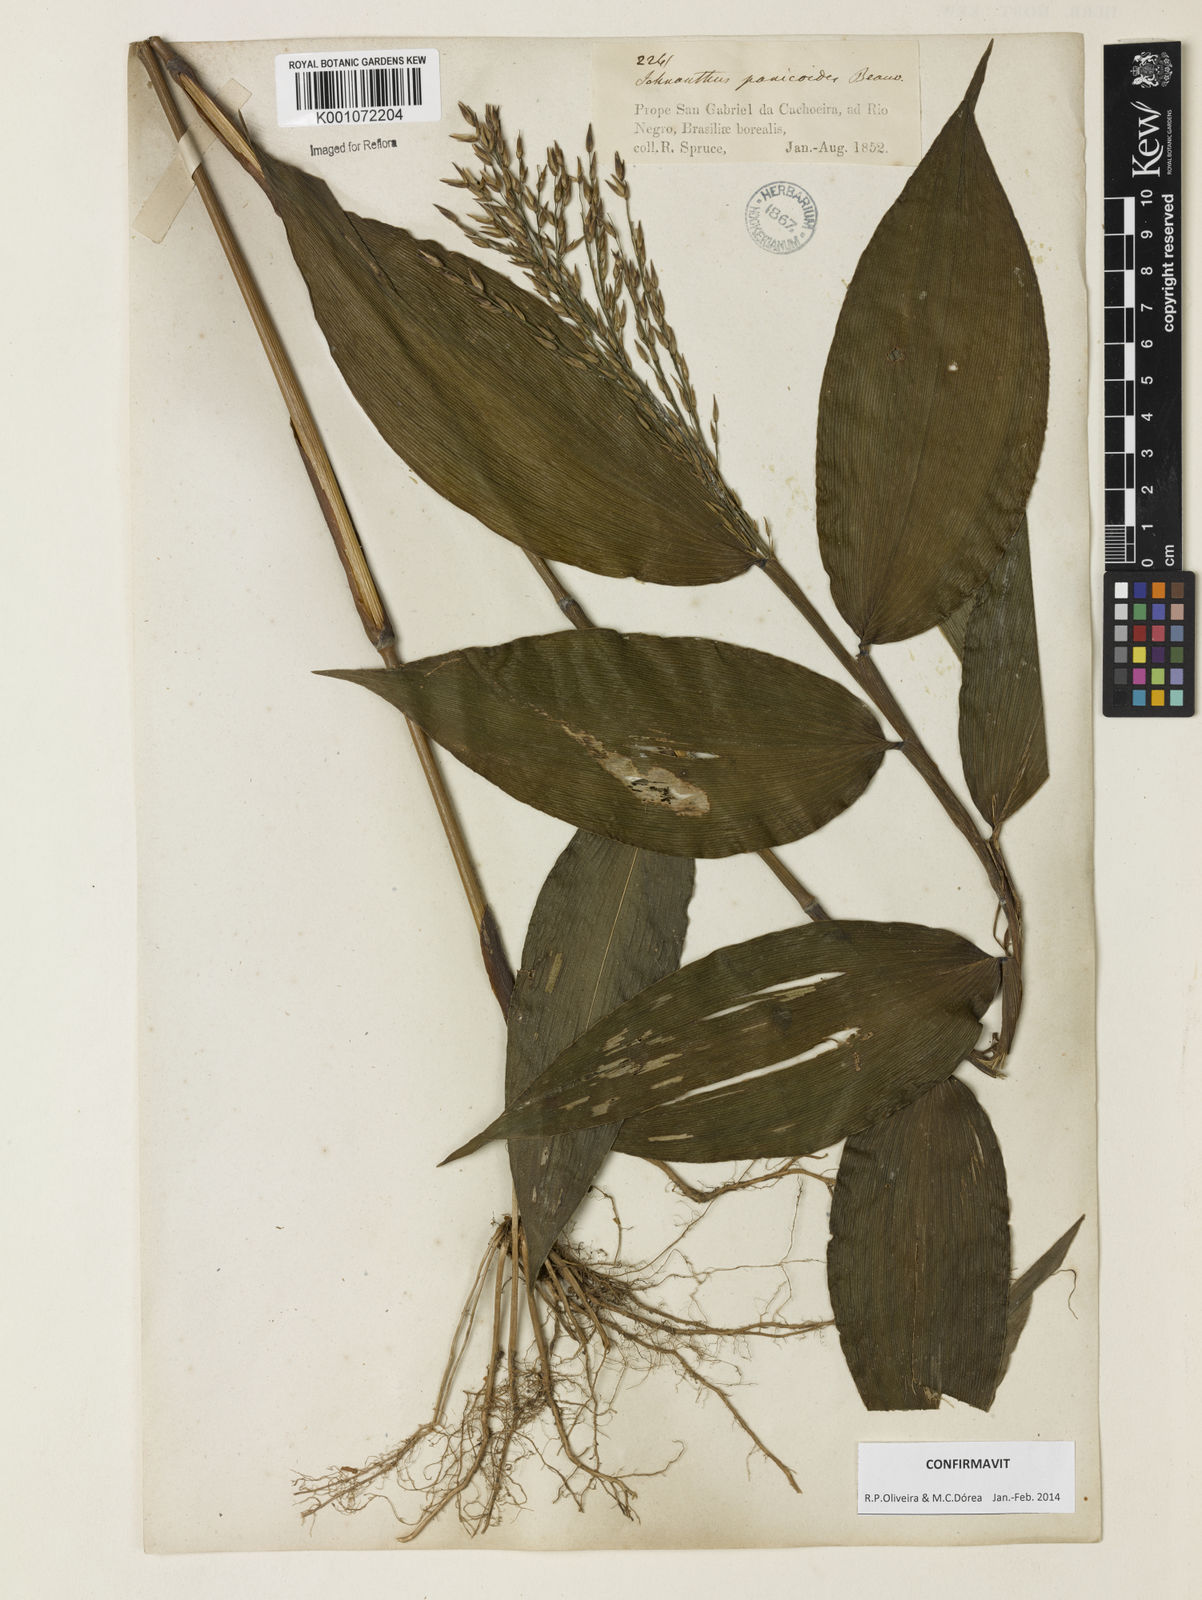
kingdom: Plantae
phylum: Tracheophyta
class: Liliopsida
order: Poales
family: Poaceae
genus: Ichnanthus
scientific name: Ichnanthus panicoides
